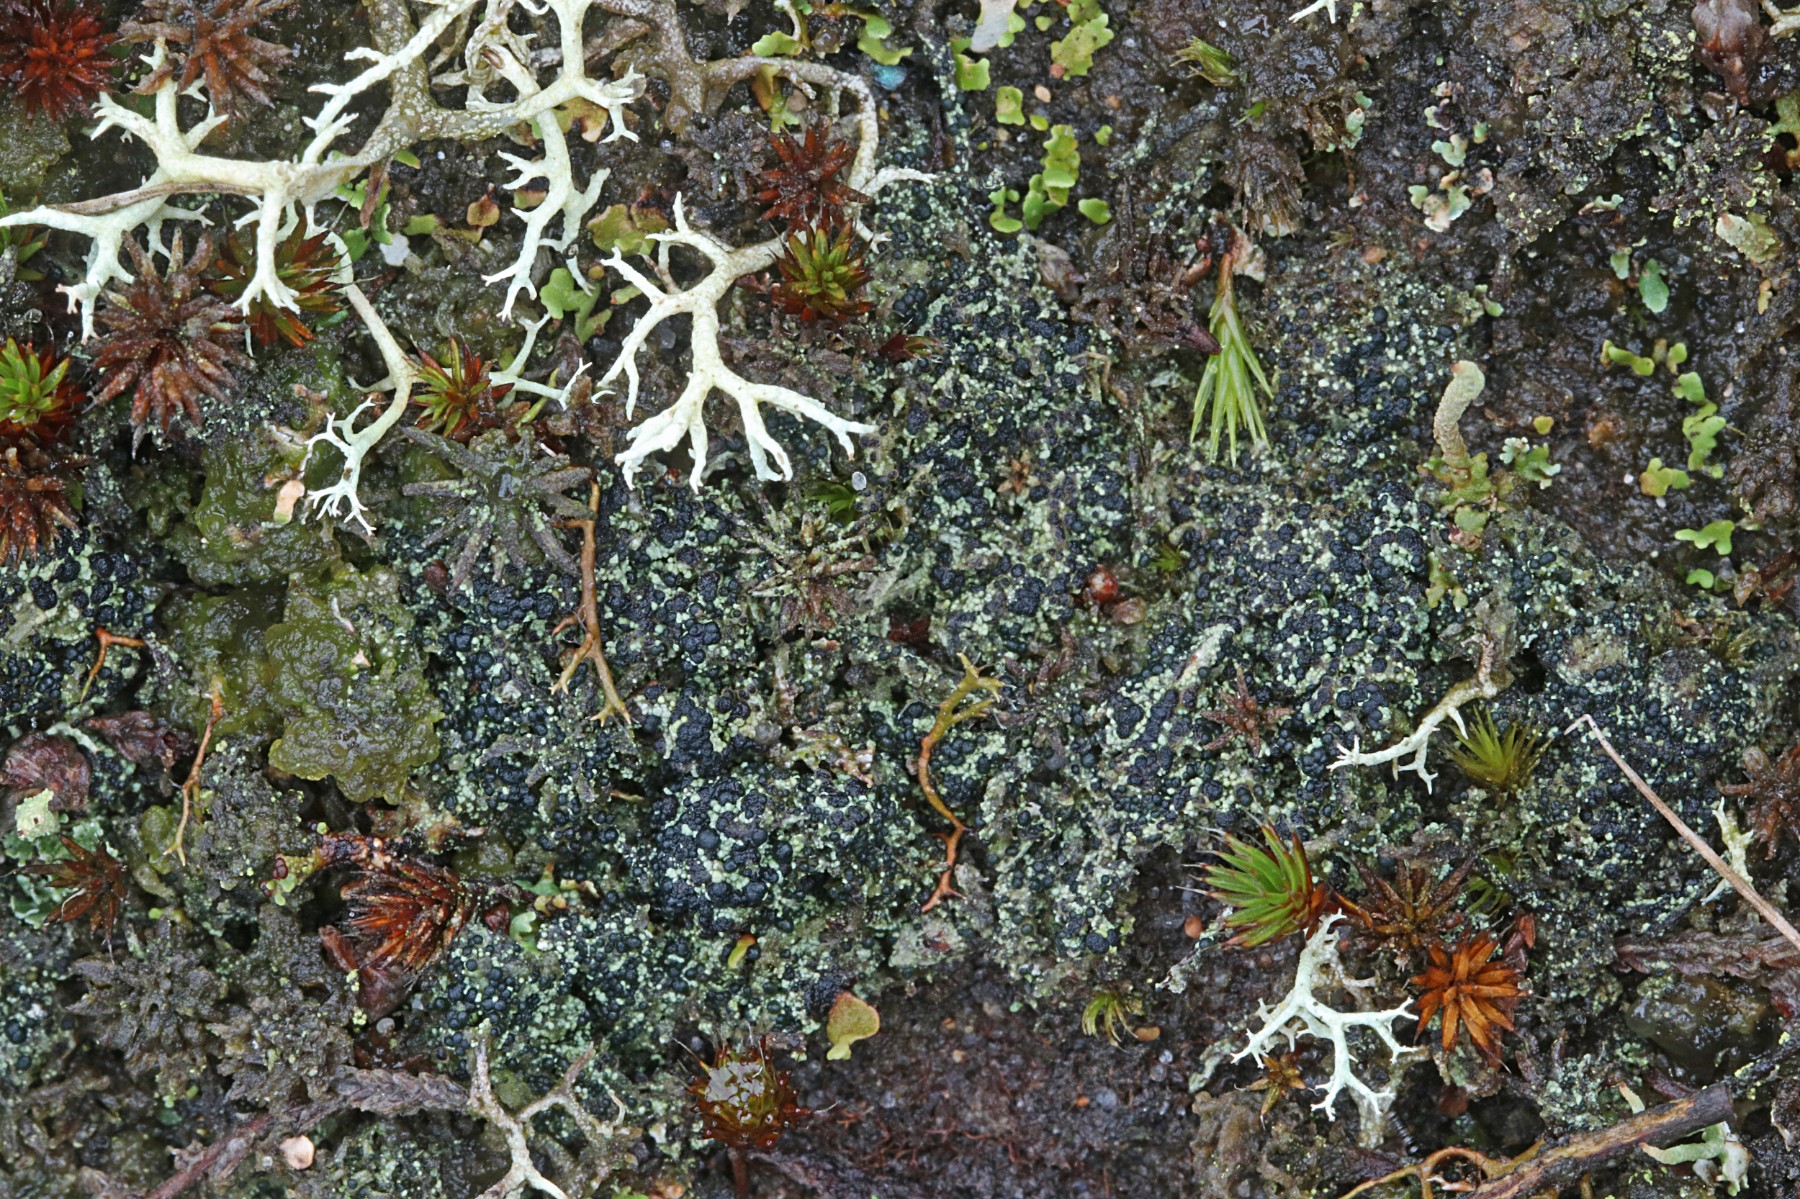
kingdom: Fungi
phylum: Ascomycota
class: Lecanoromycetes
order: Lecanorales
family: Byssolomataceae
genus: Micarea
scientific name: Micarea lignaria
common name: tørve-knaplav
